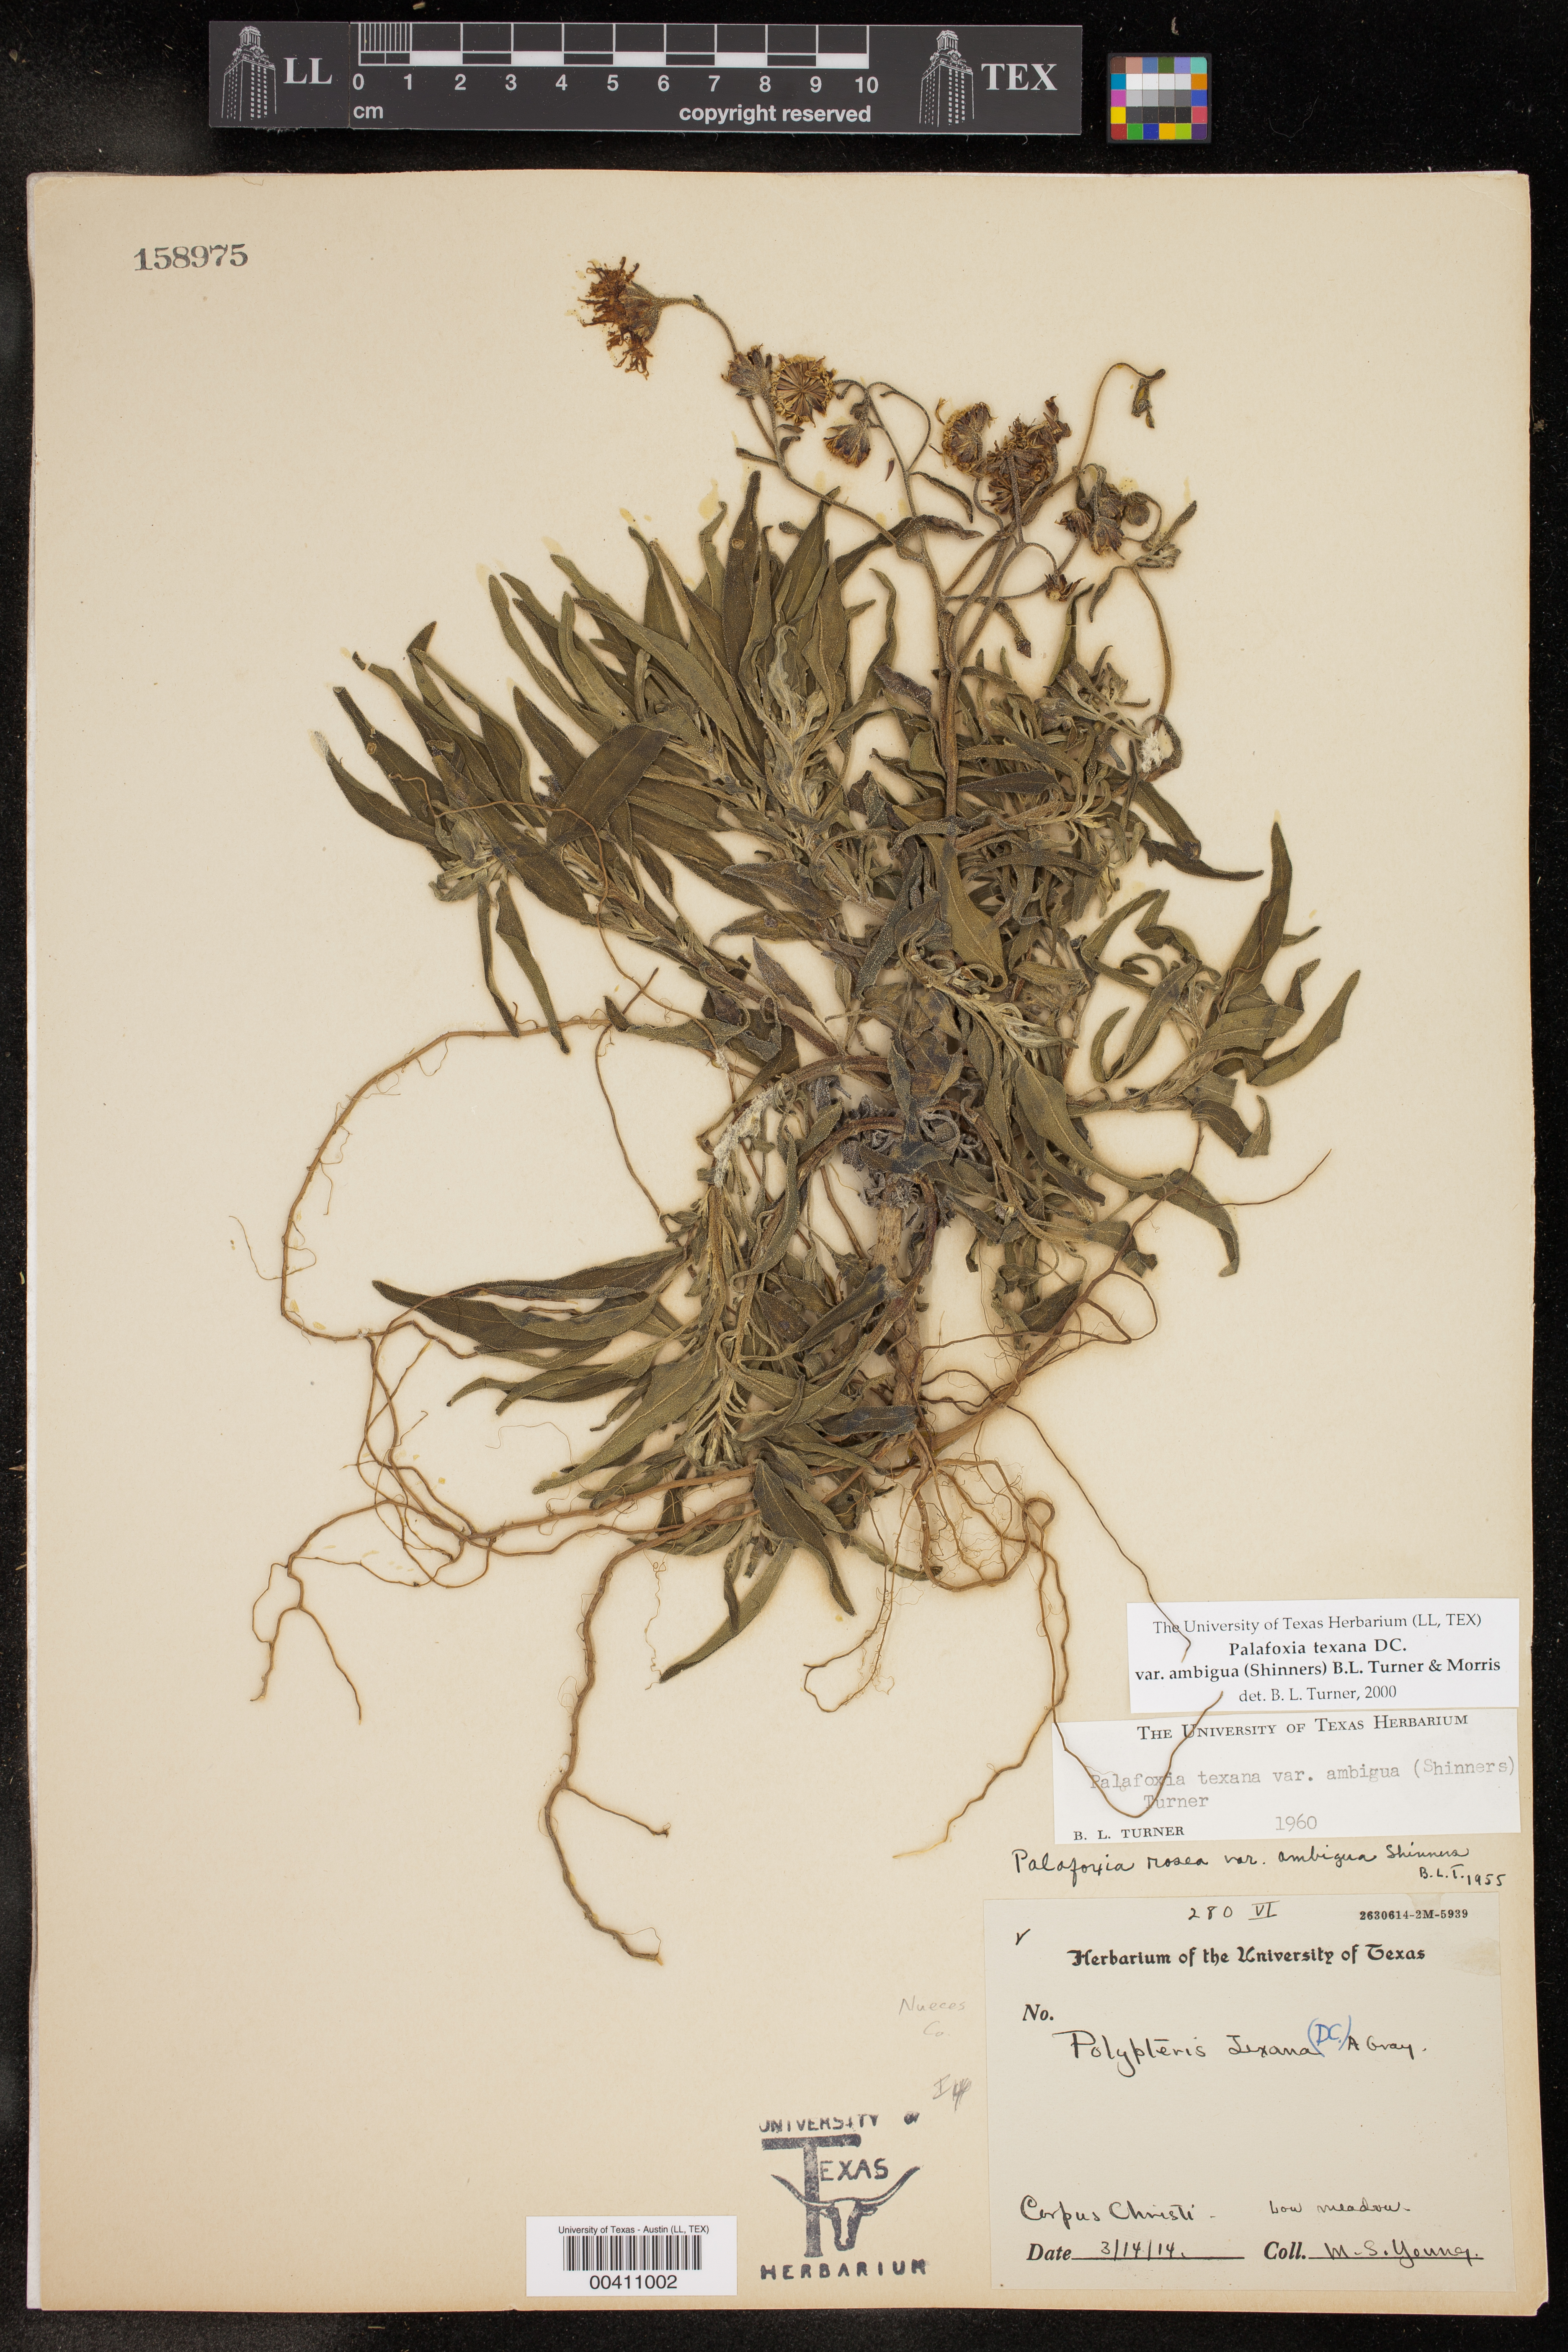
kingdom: Plantae
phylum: Tracheophyta
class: Magnoliopsida
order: Asterales
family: Asteraceae
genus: Palafoxia
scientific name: Palafoxia texana
